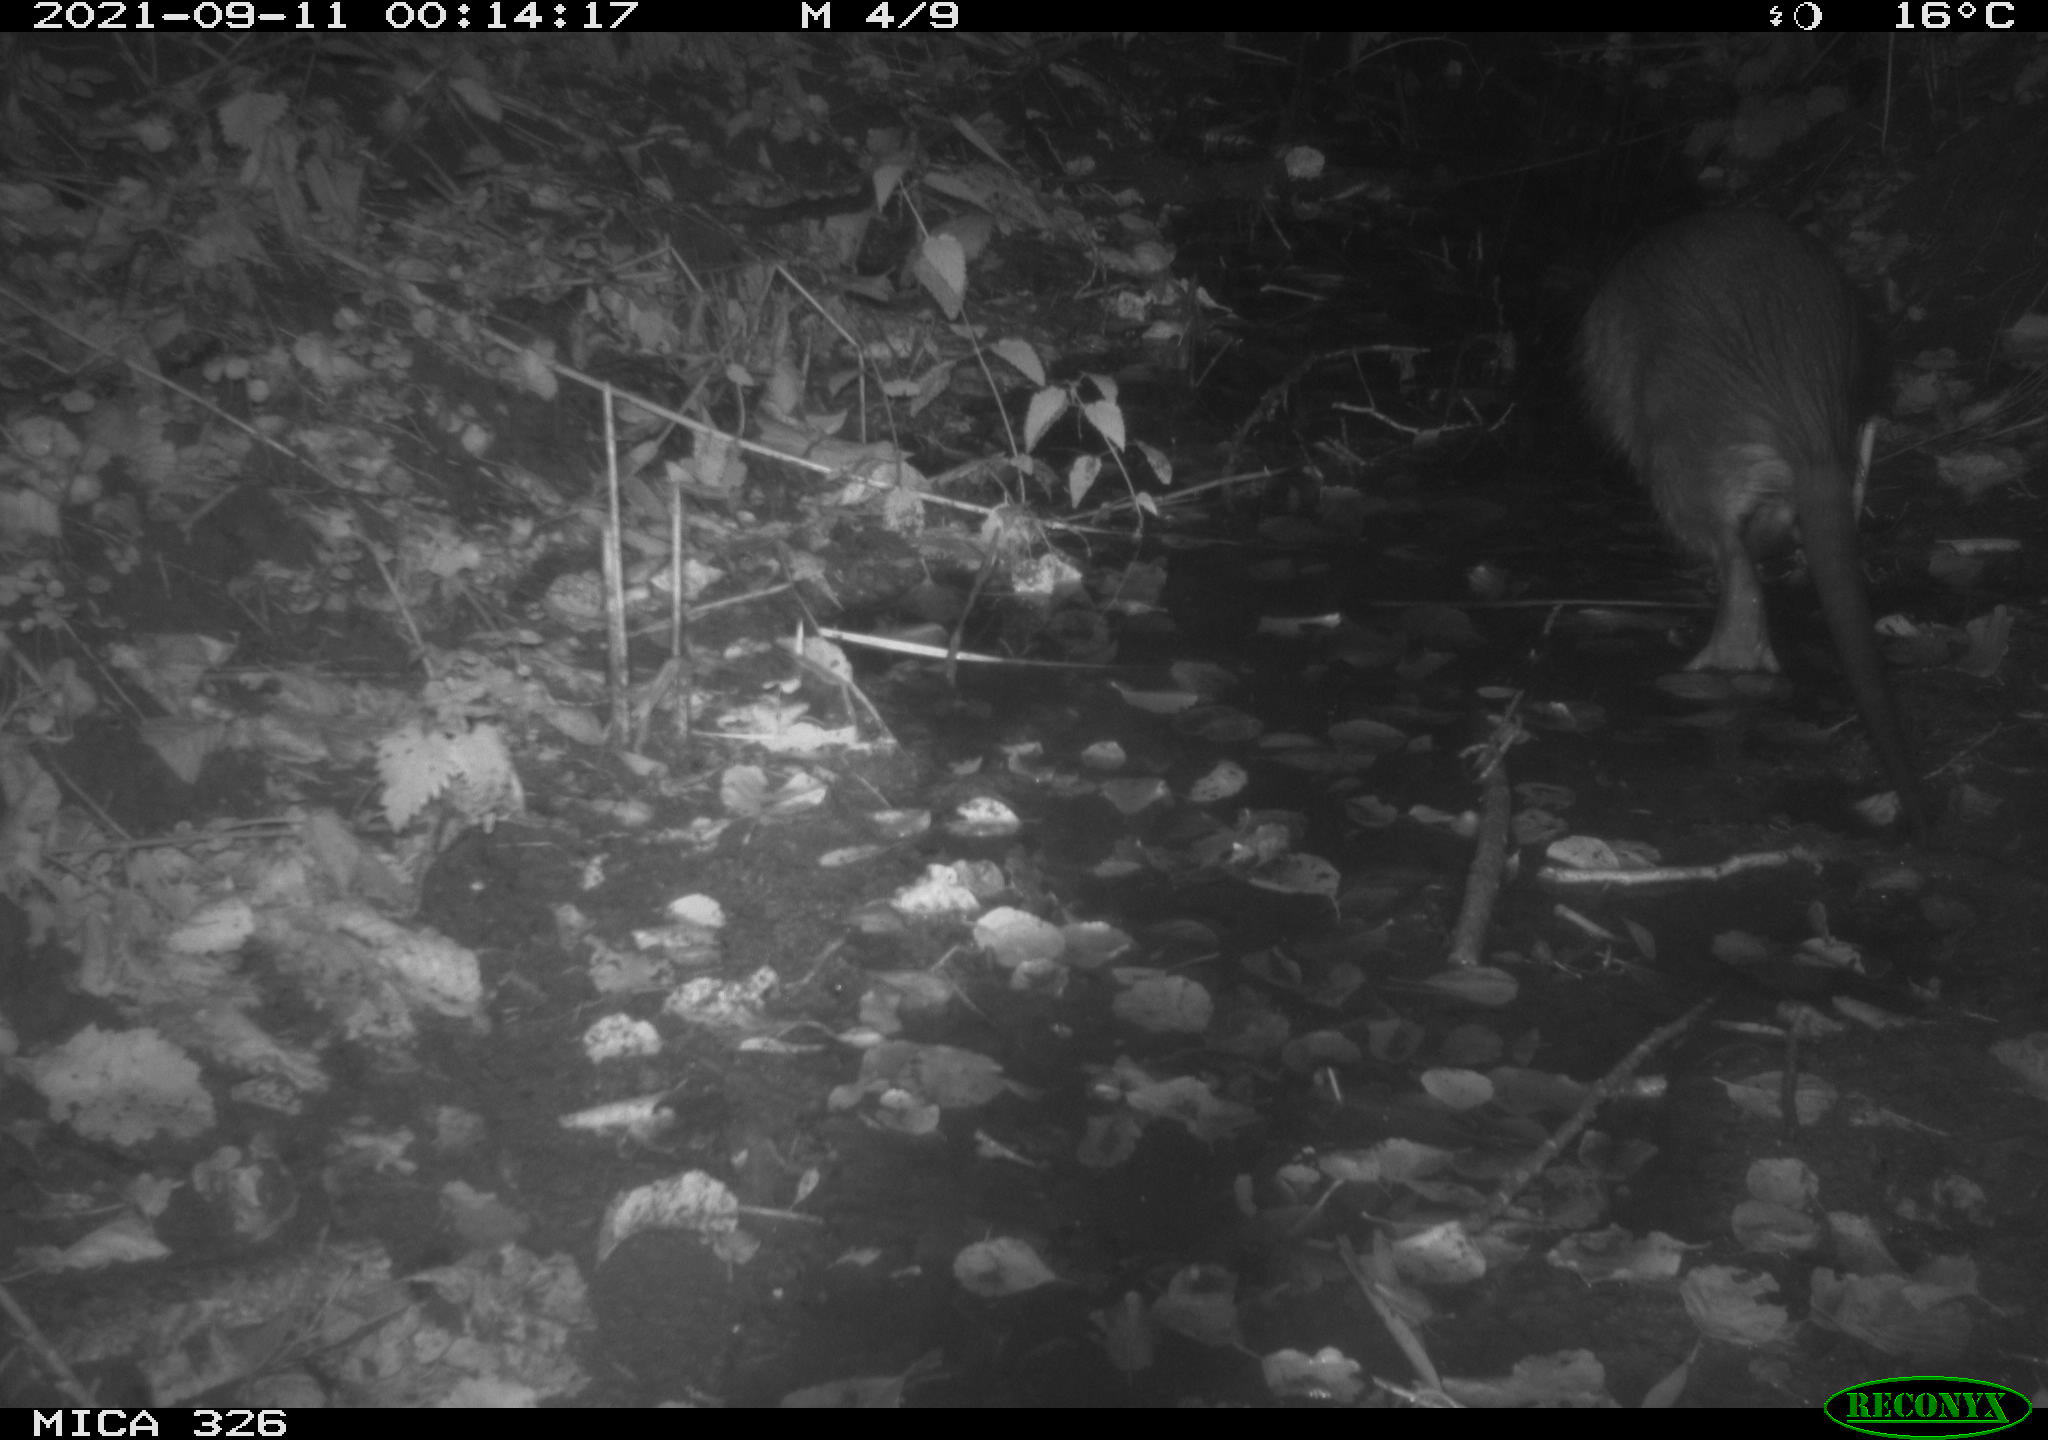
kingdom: Animalia
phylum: Chordata
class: Mammalia
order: Rodentia
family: Myocastoridae
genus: Myocastor
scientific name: Myocastor coypus
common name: Coypu
